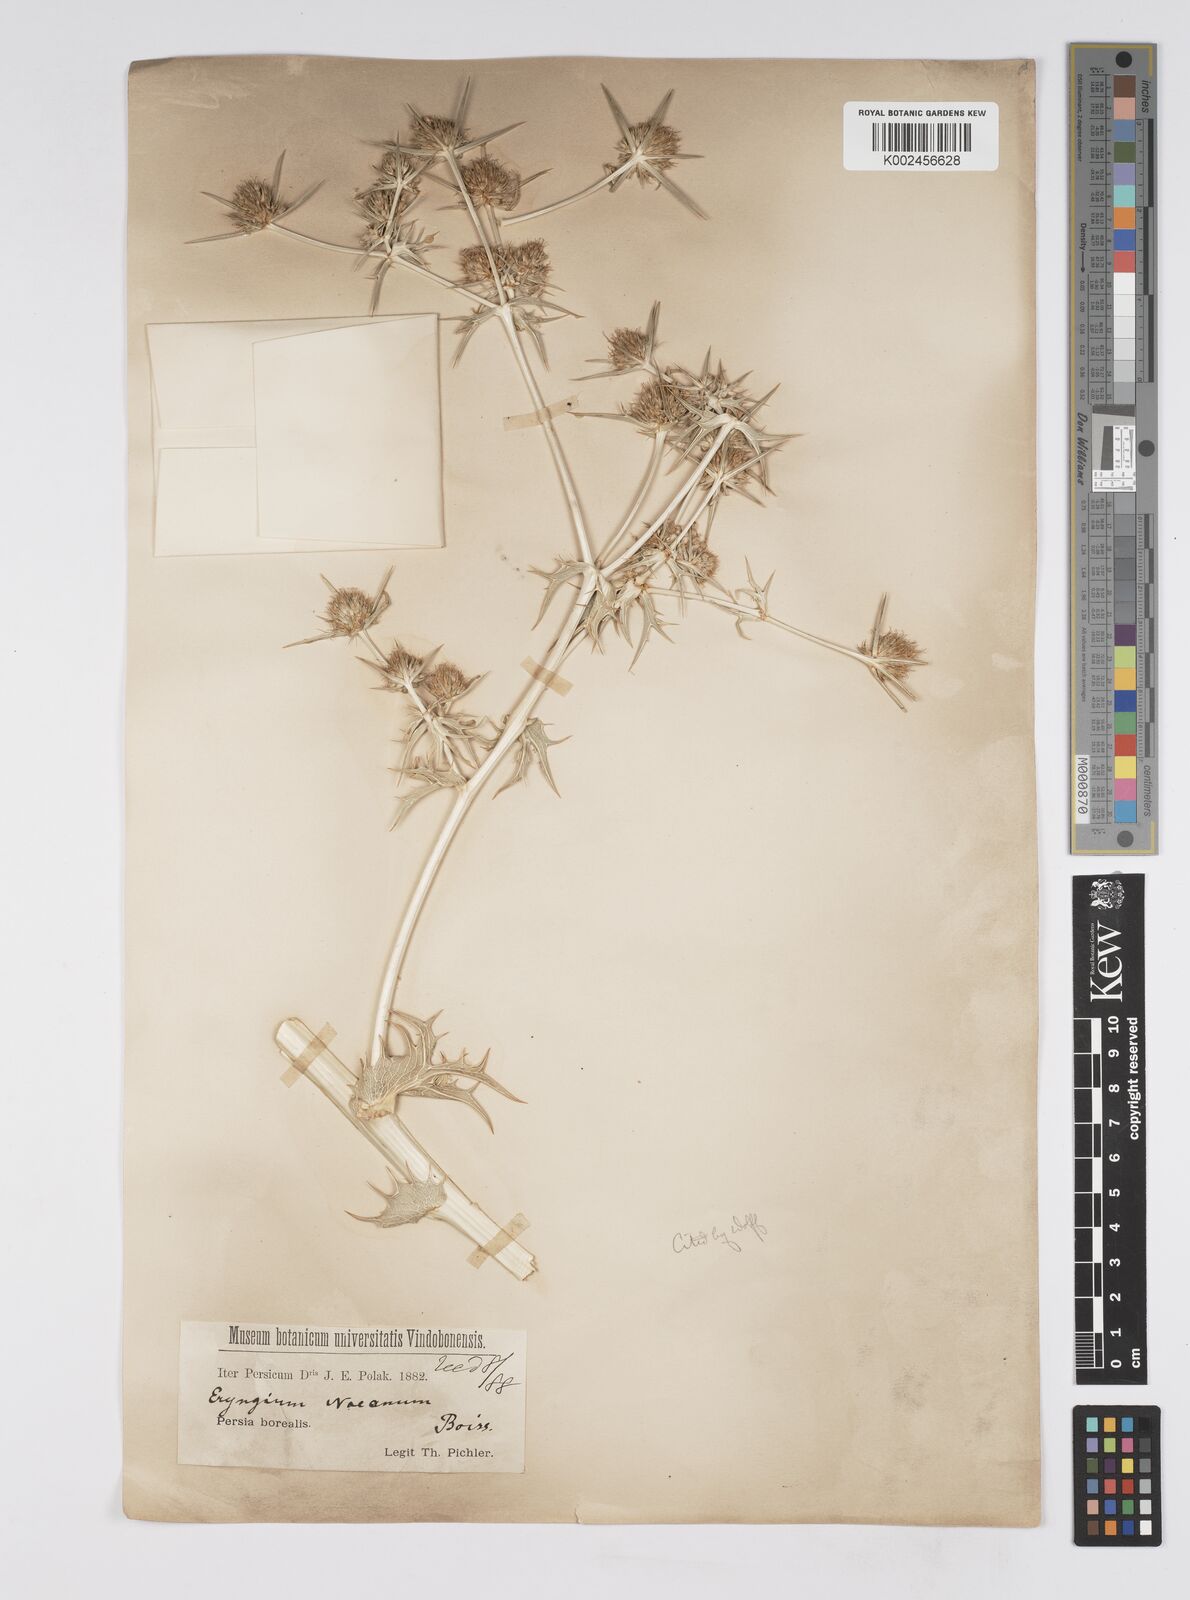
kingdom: Plantae
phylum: Tracheophyta
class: Magnoliopsida
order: Apiales
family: Apiaceae
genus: Eryngium
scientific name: Eryngium billardierei
